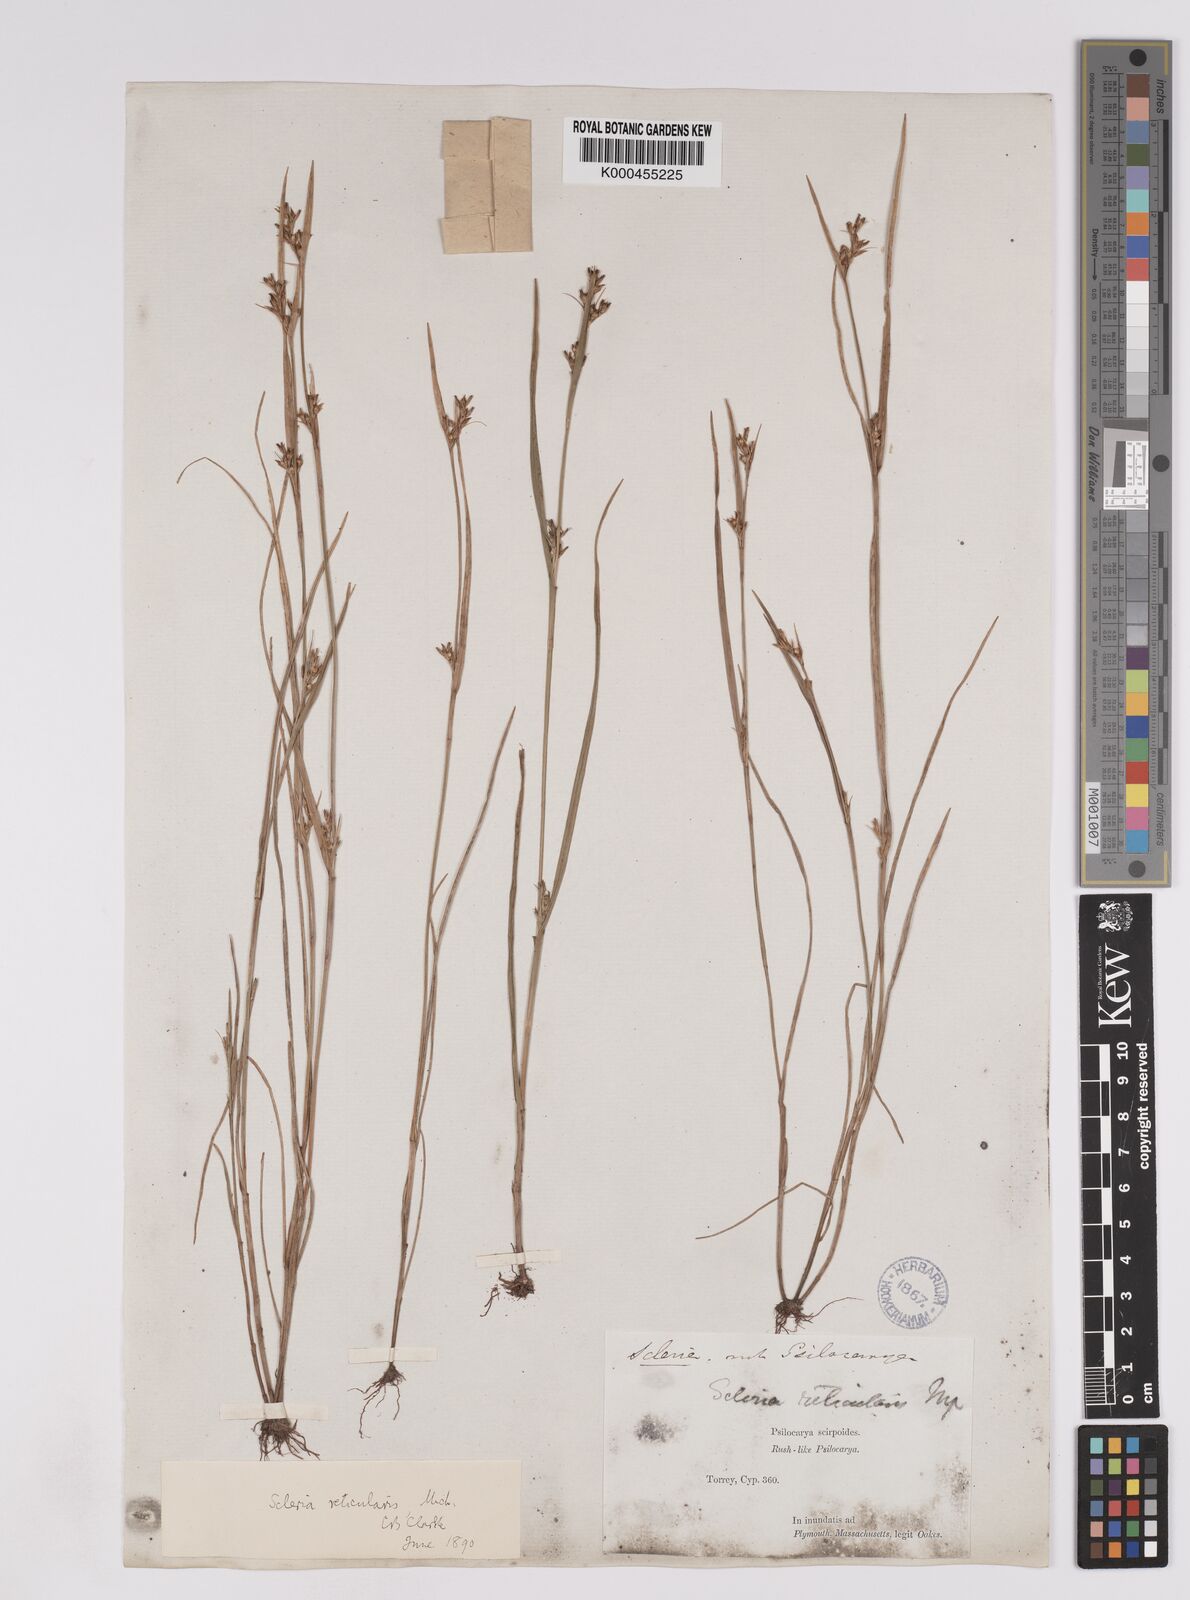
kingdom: Plantae
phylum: Tracheophyta
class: Liliopsida
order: Poales
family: Cyperaceae
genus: Scleria
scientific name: Scleria
